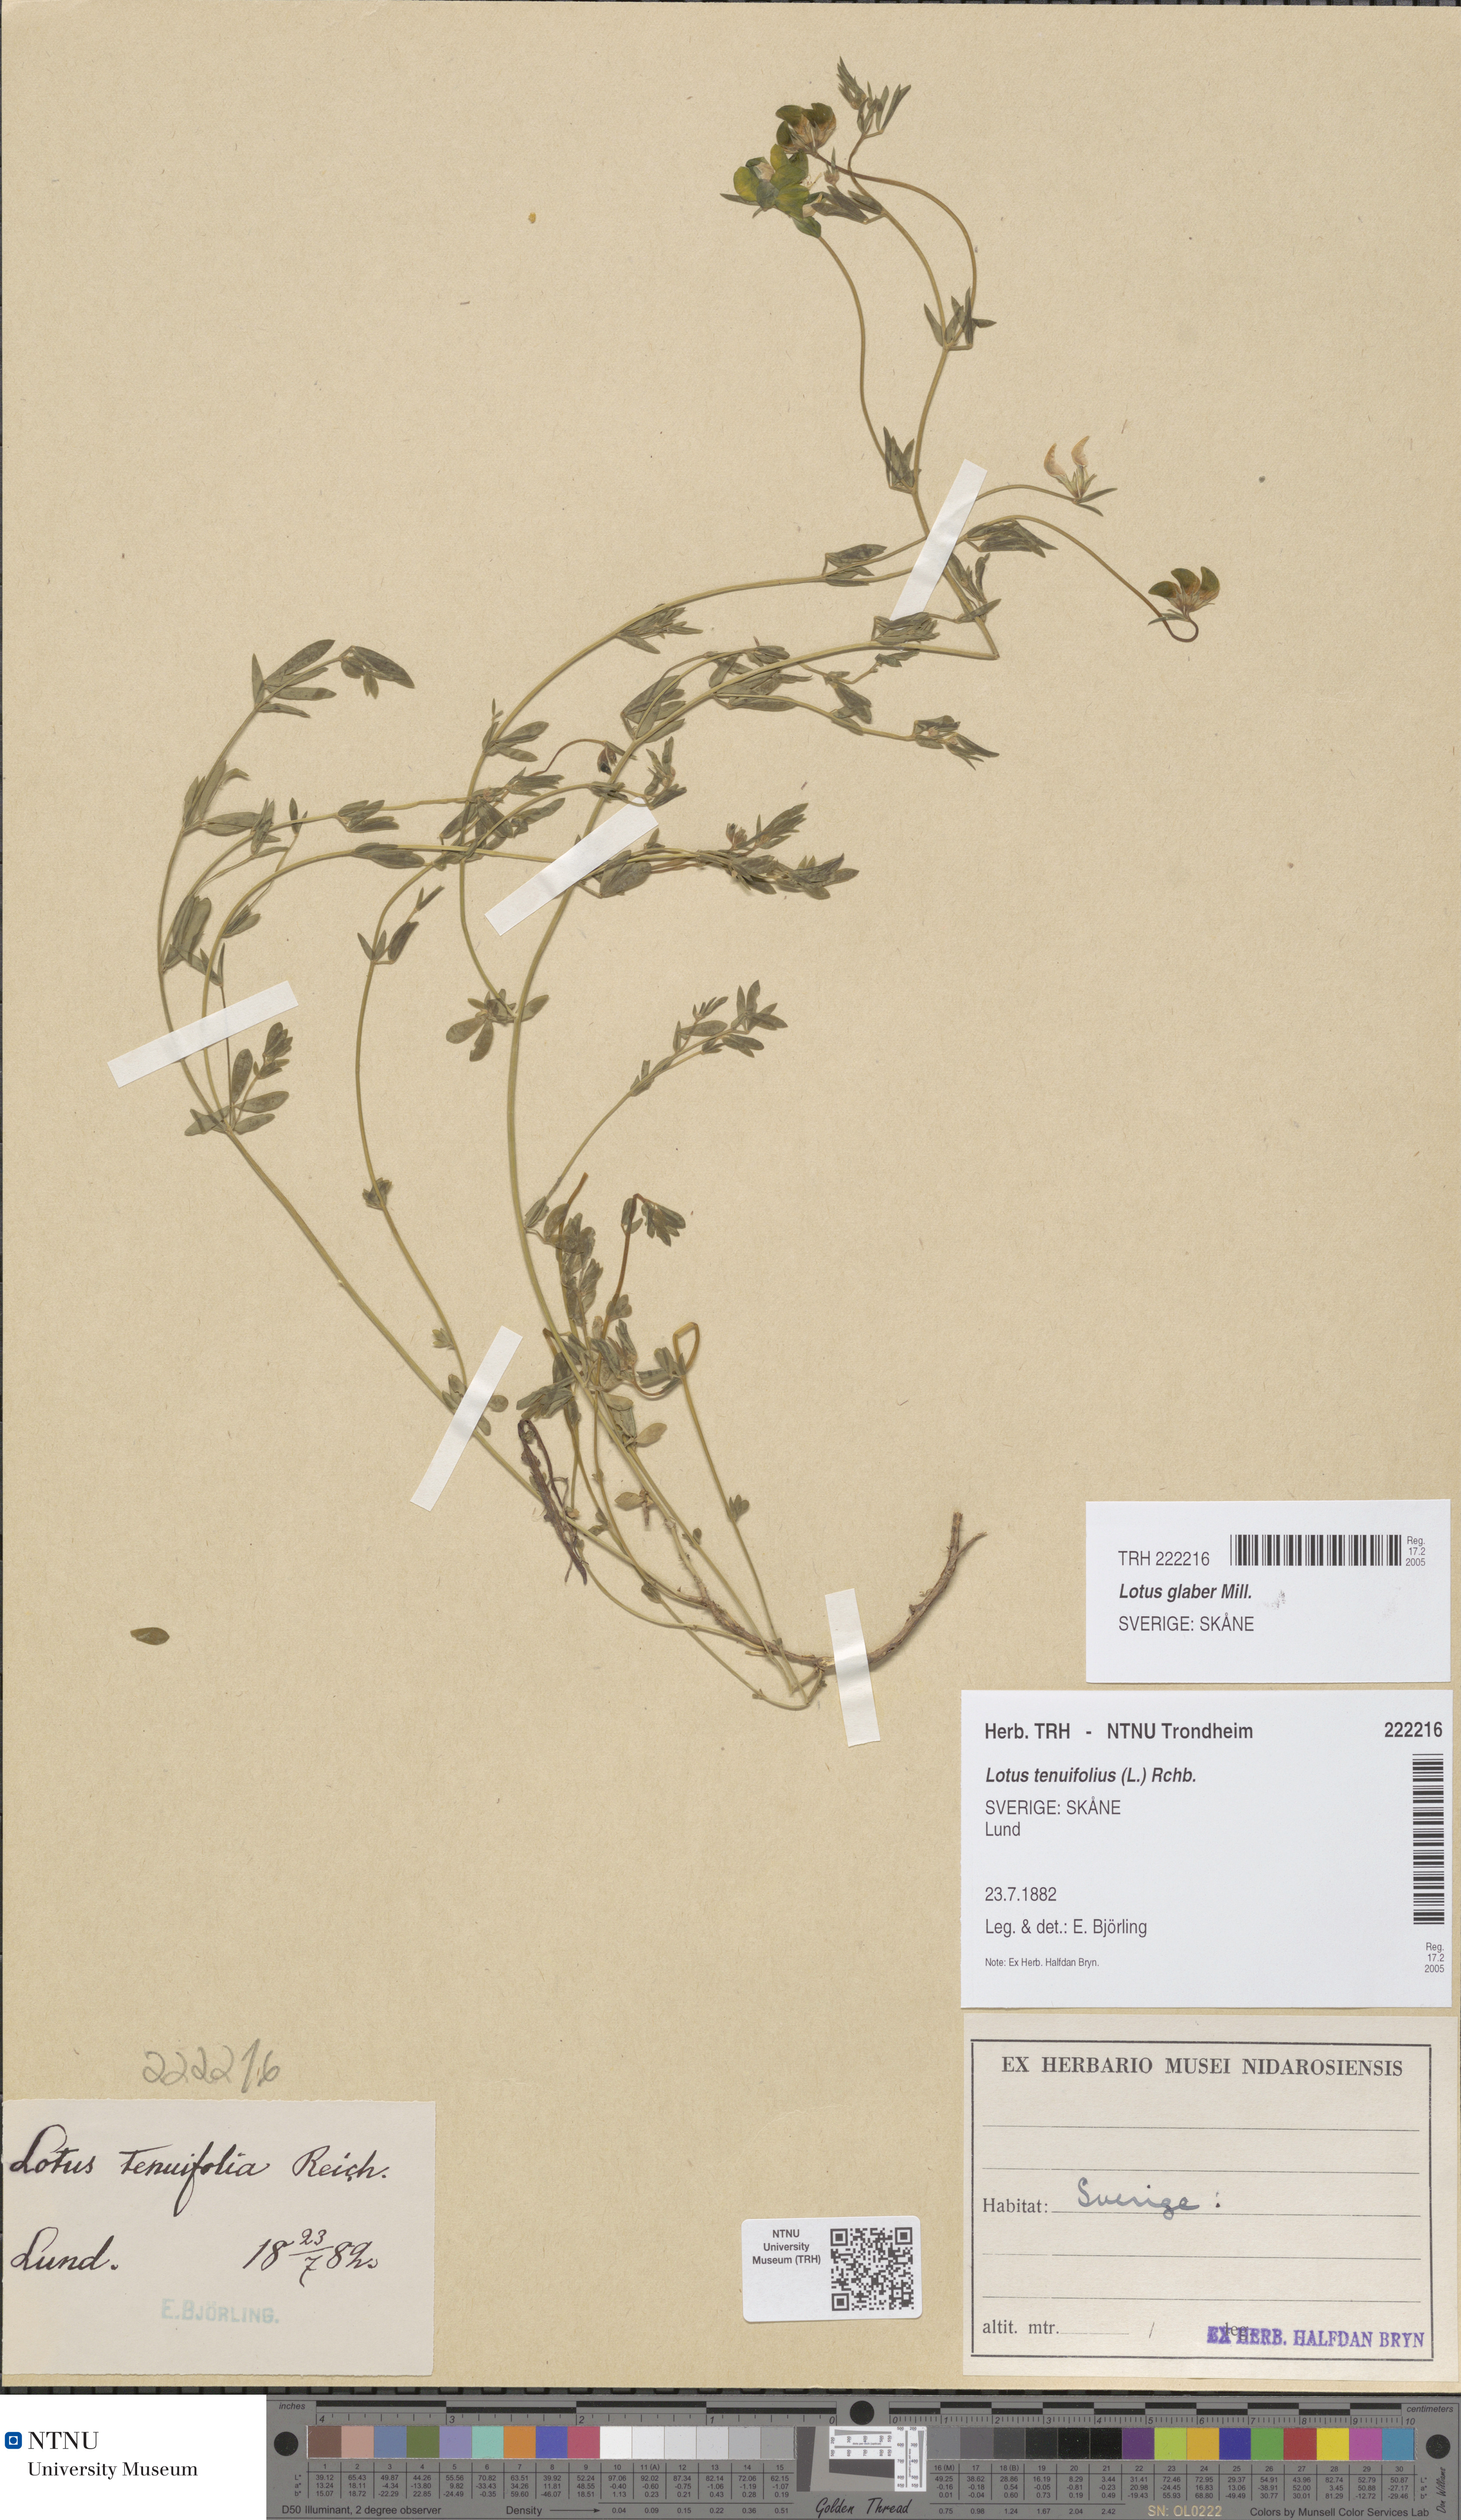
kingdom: Plantae
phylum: Tracheophyta
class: Magnoliopsida
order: Fabales
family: Fabaceae
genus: Lotus
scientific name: Lotus tenuis
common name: Narrow-leaved bird's-foot-trefoil
